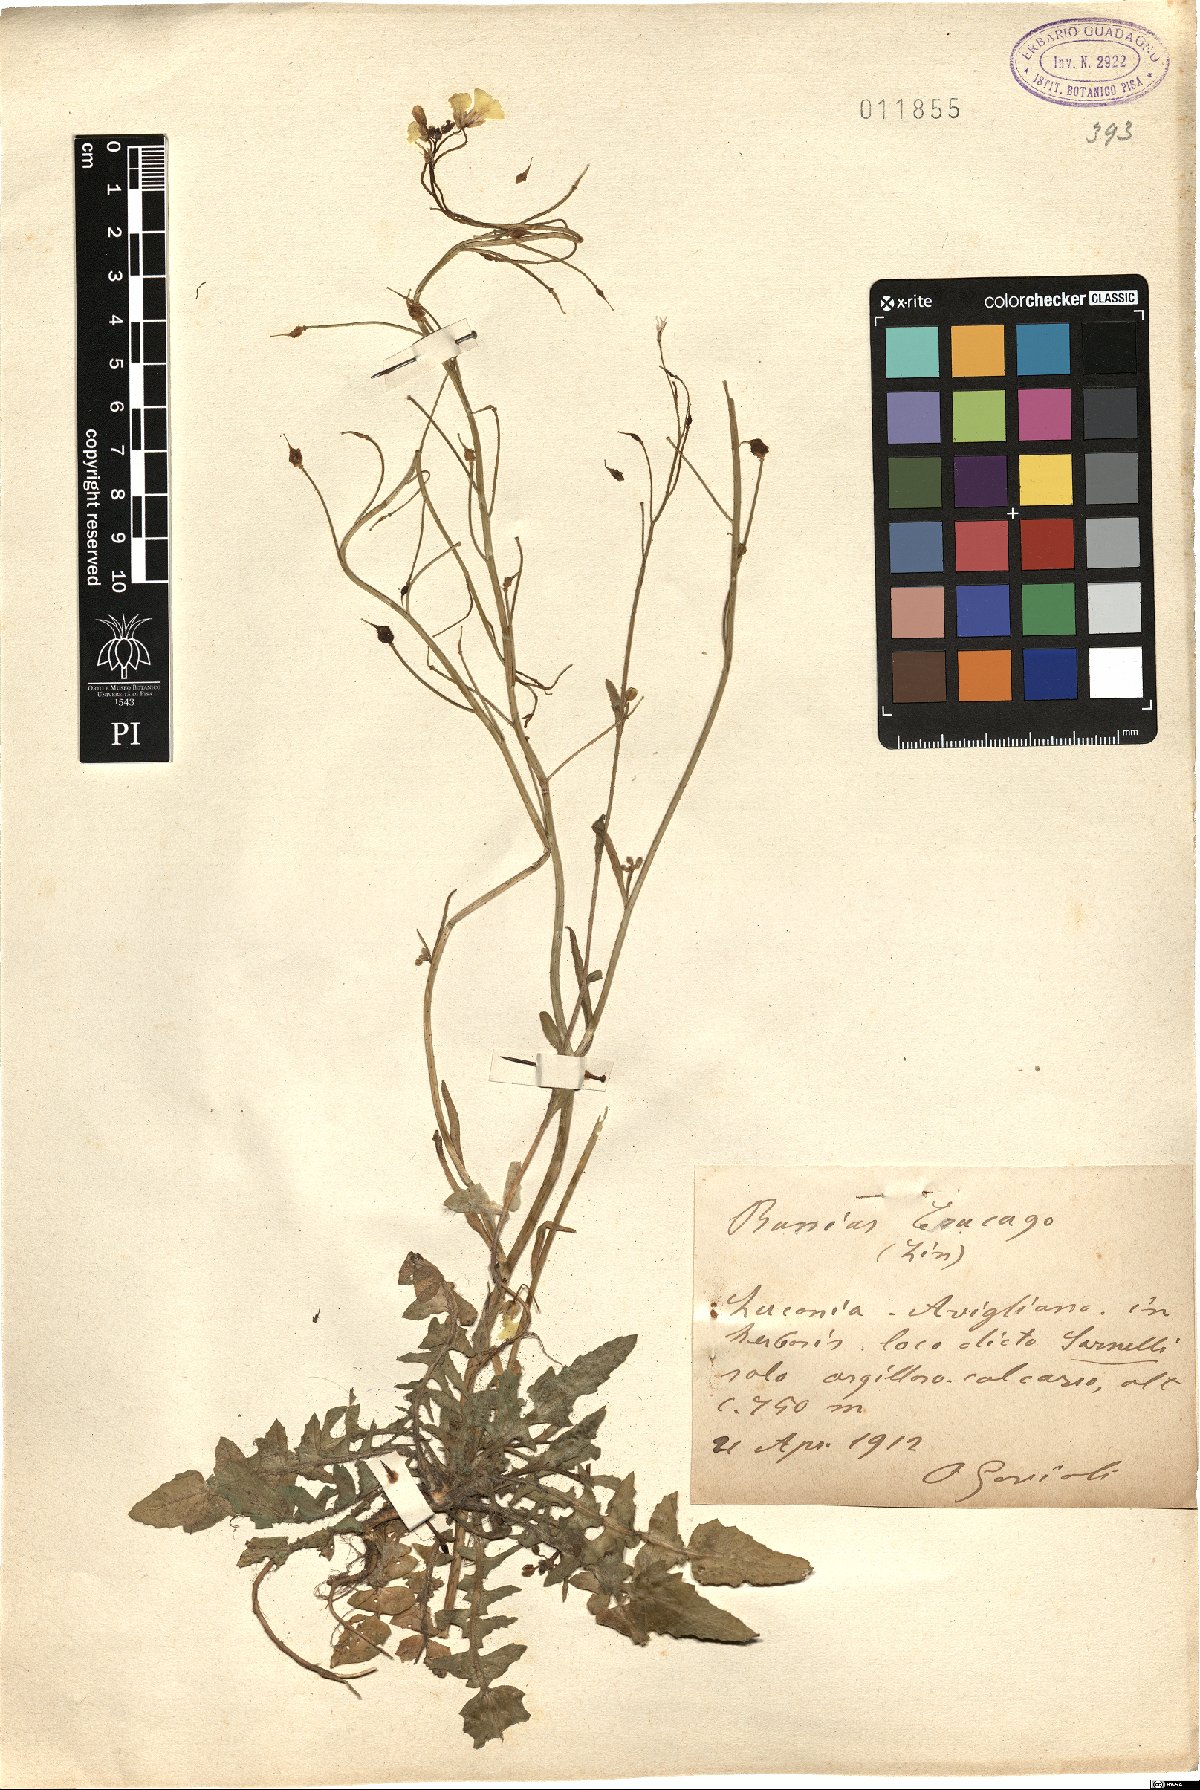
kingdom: Plantae
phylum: Tracheophyta
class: Magnoliopsida
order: Brassicales
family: Brassicaceae
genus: Bunias
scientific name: Bunias erucago
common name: Southern warty-cabbage
